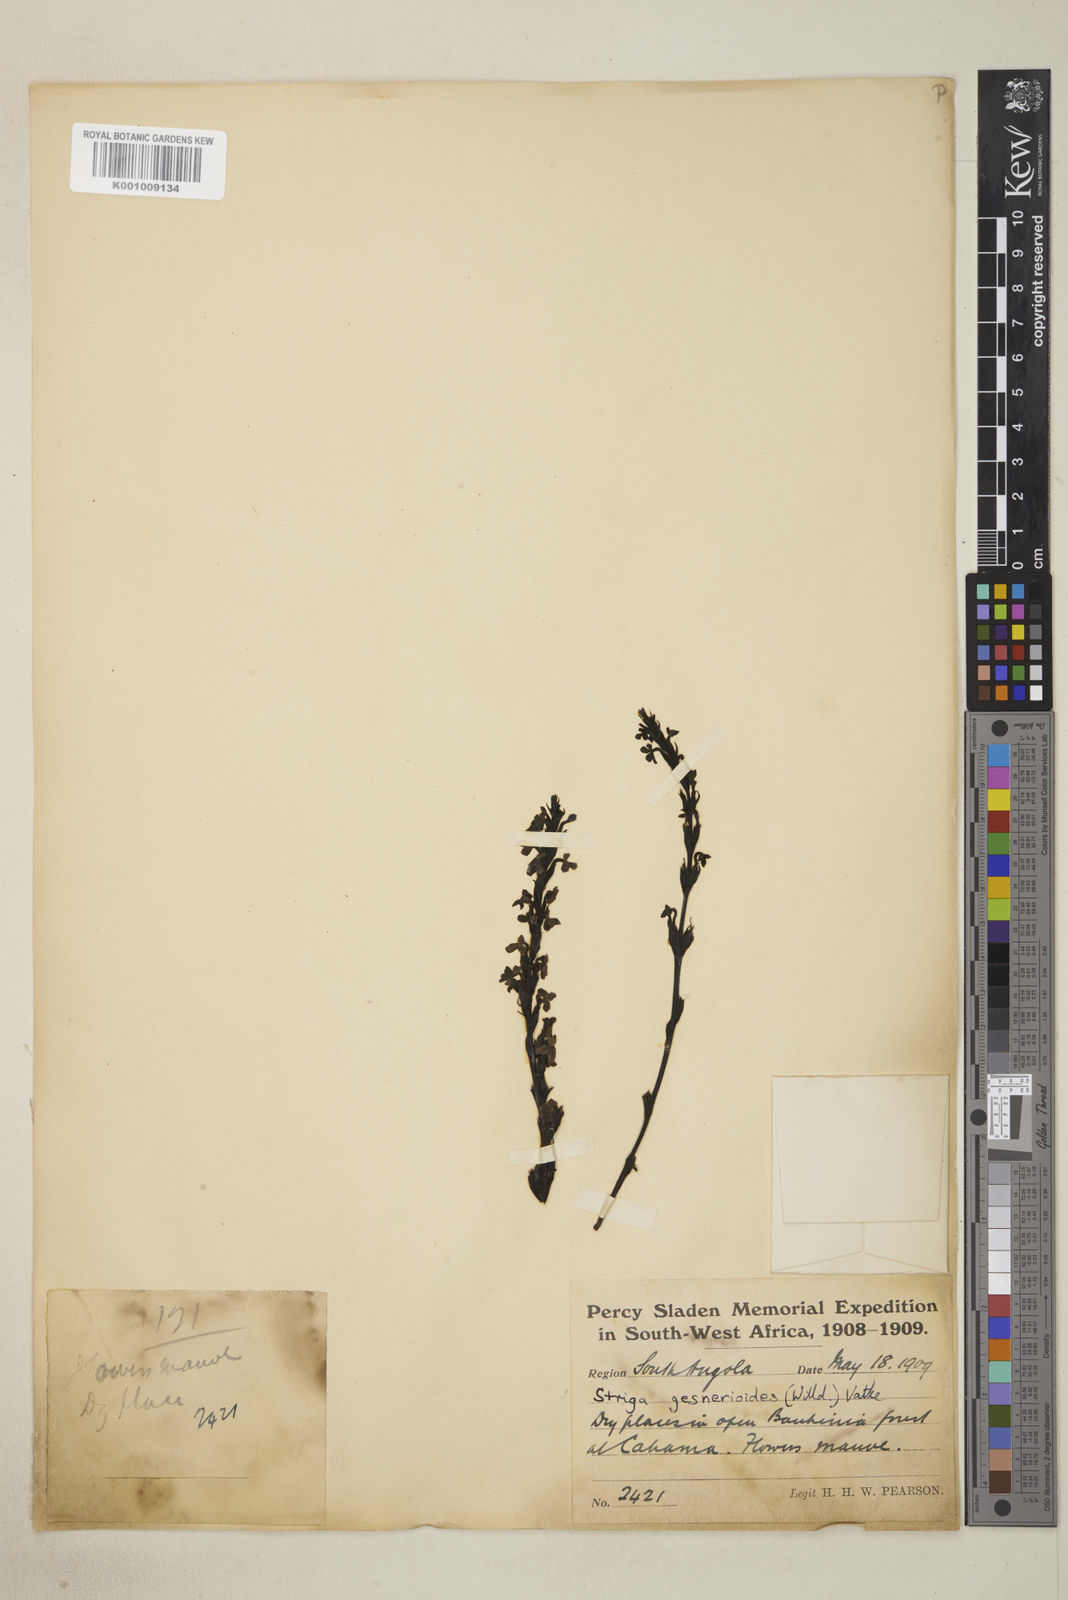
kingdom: Plantae
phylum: Tracheophyta
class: Magnoliopsida
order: Lamiales
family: Orobanchaceae
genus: Striga
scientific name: Striga gesnerioides
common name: Cowpea witchweed
